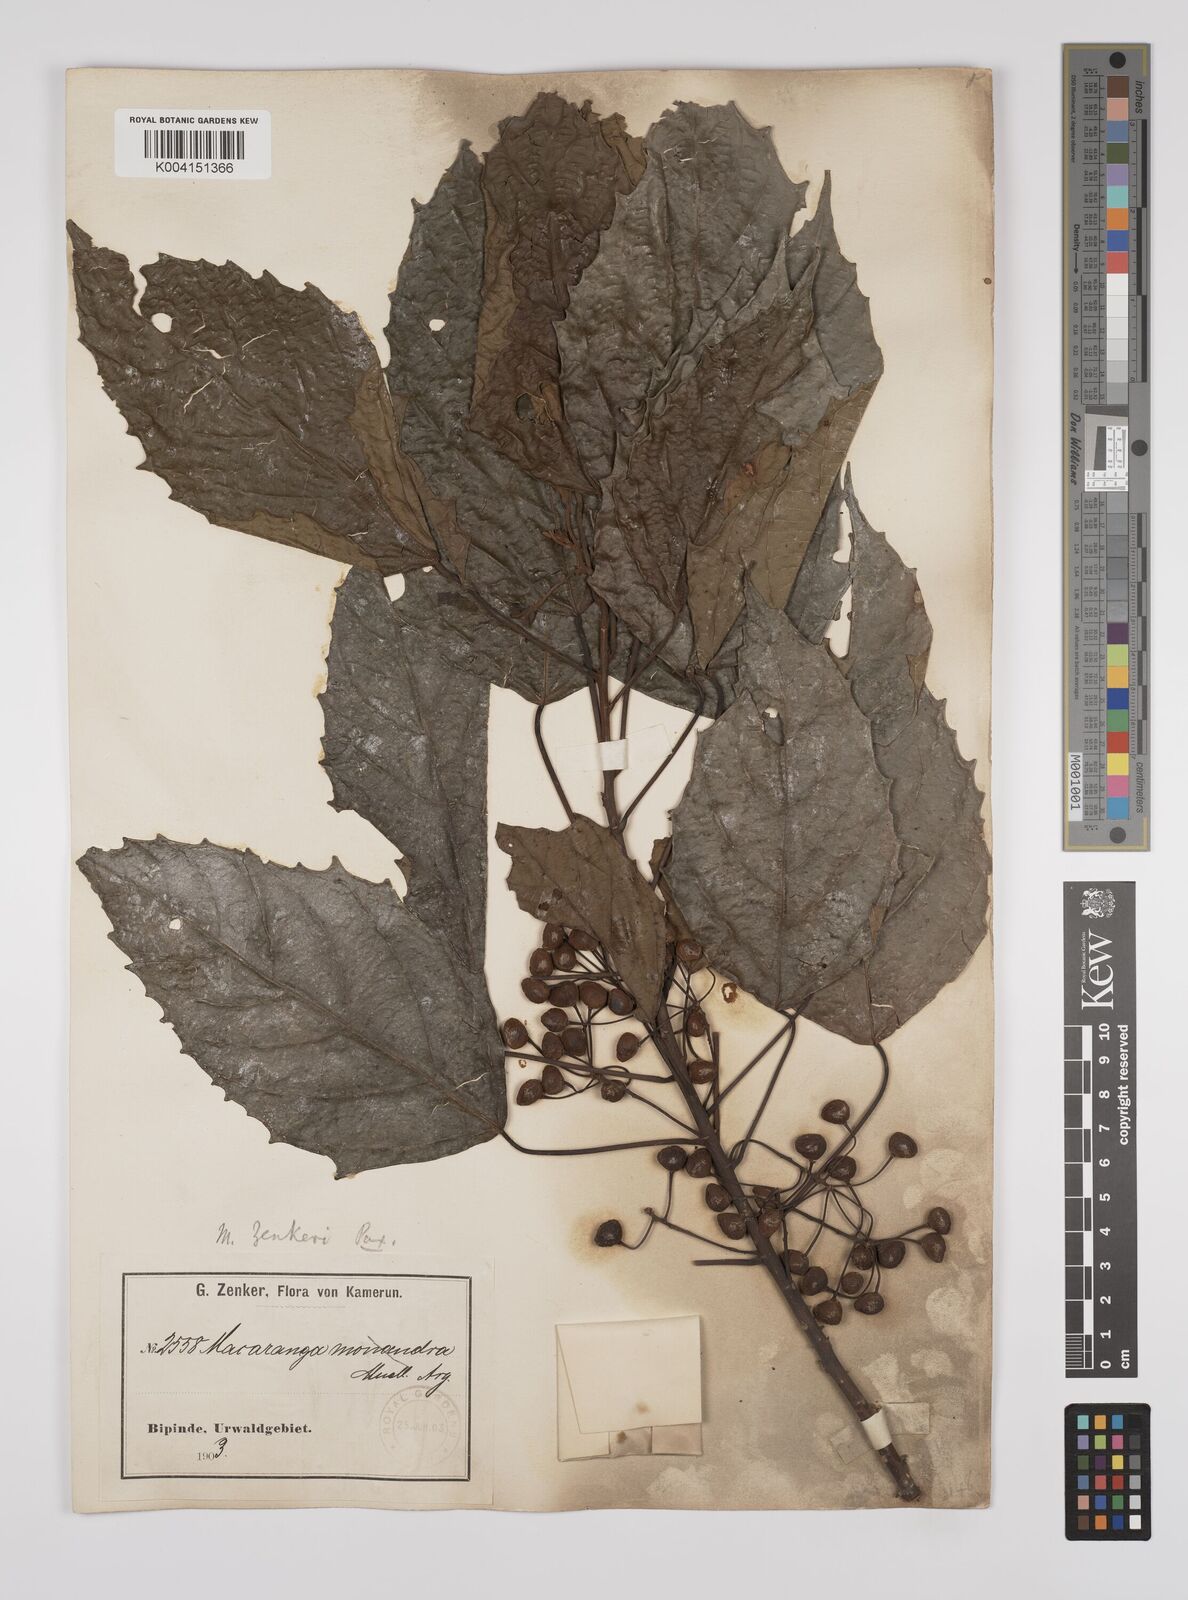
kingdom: Plantae
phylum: Tracheophyta
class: Magnoliopsida
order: Malpighiales
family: Euphorbiaceae
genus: Macaranga
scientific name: Macaranga monandra
